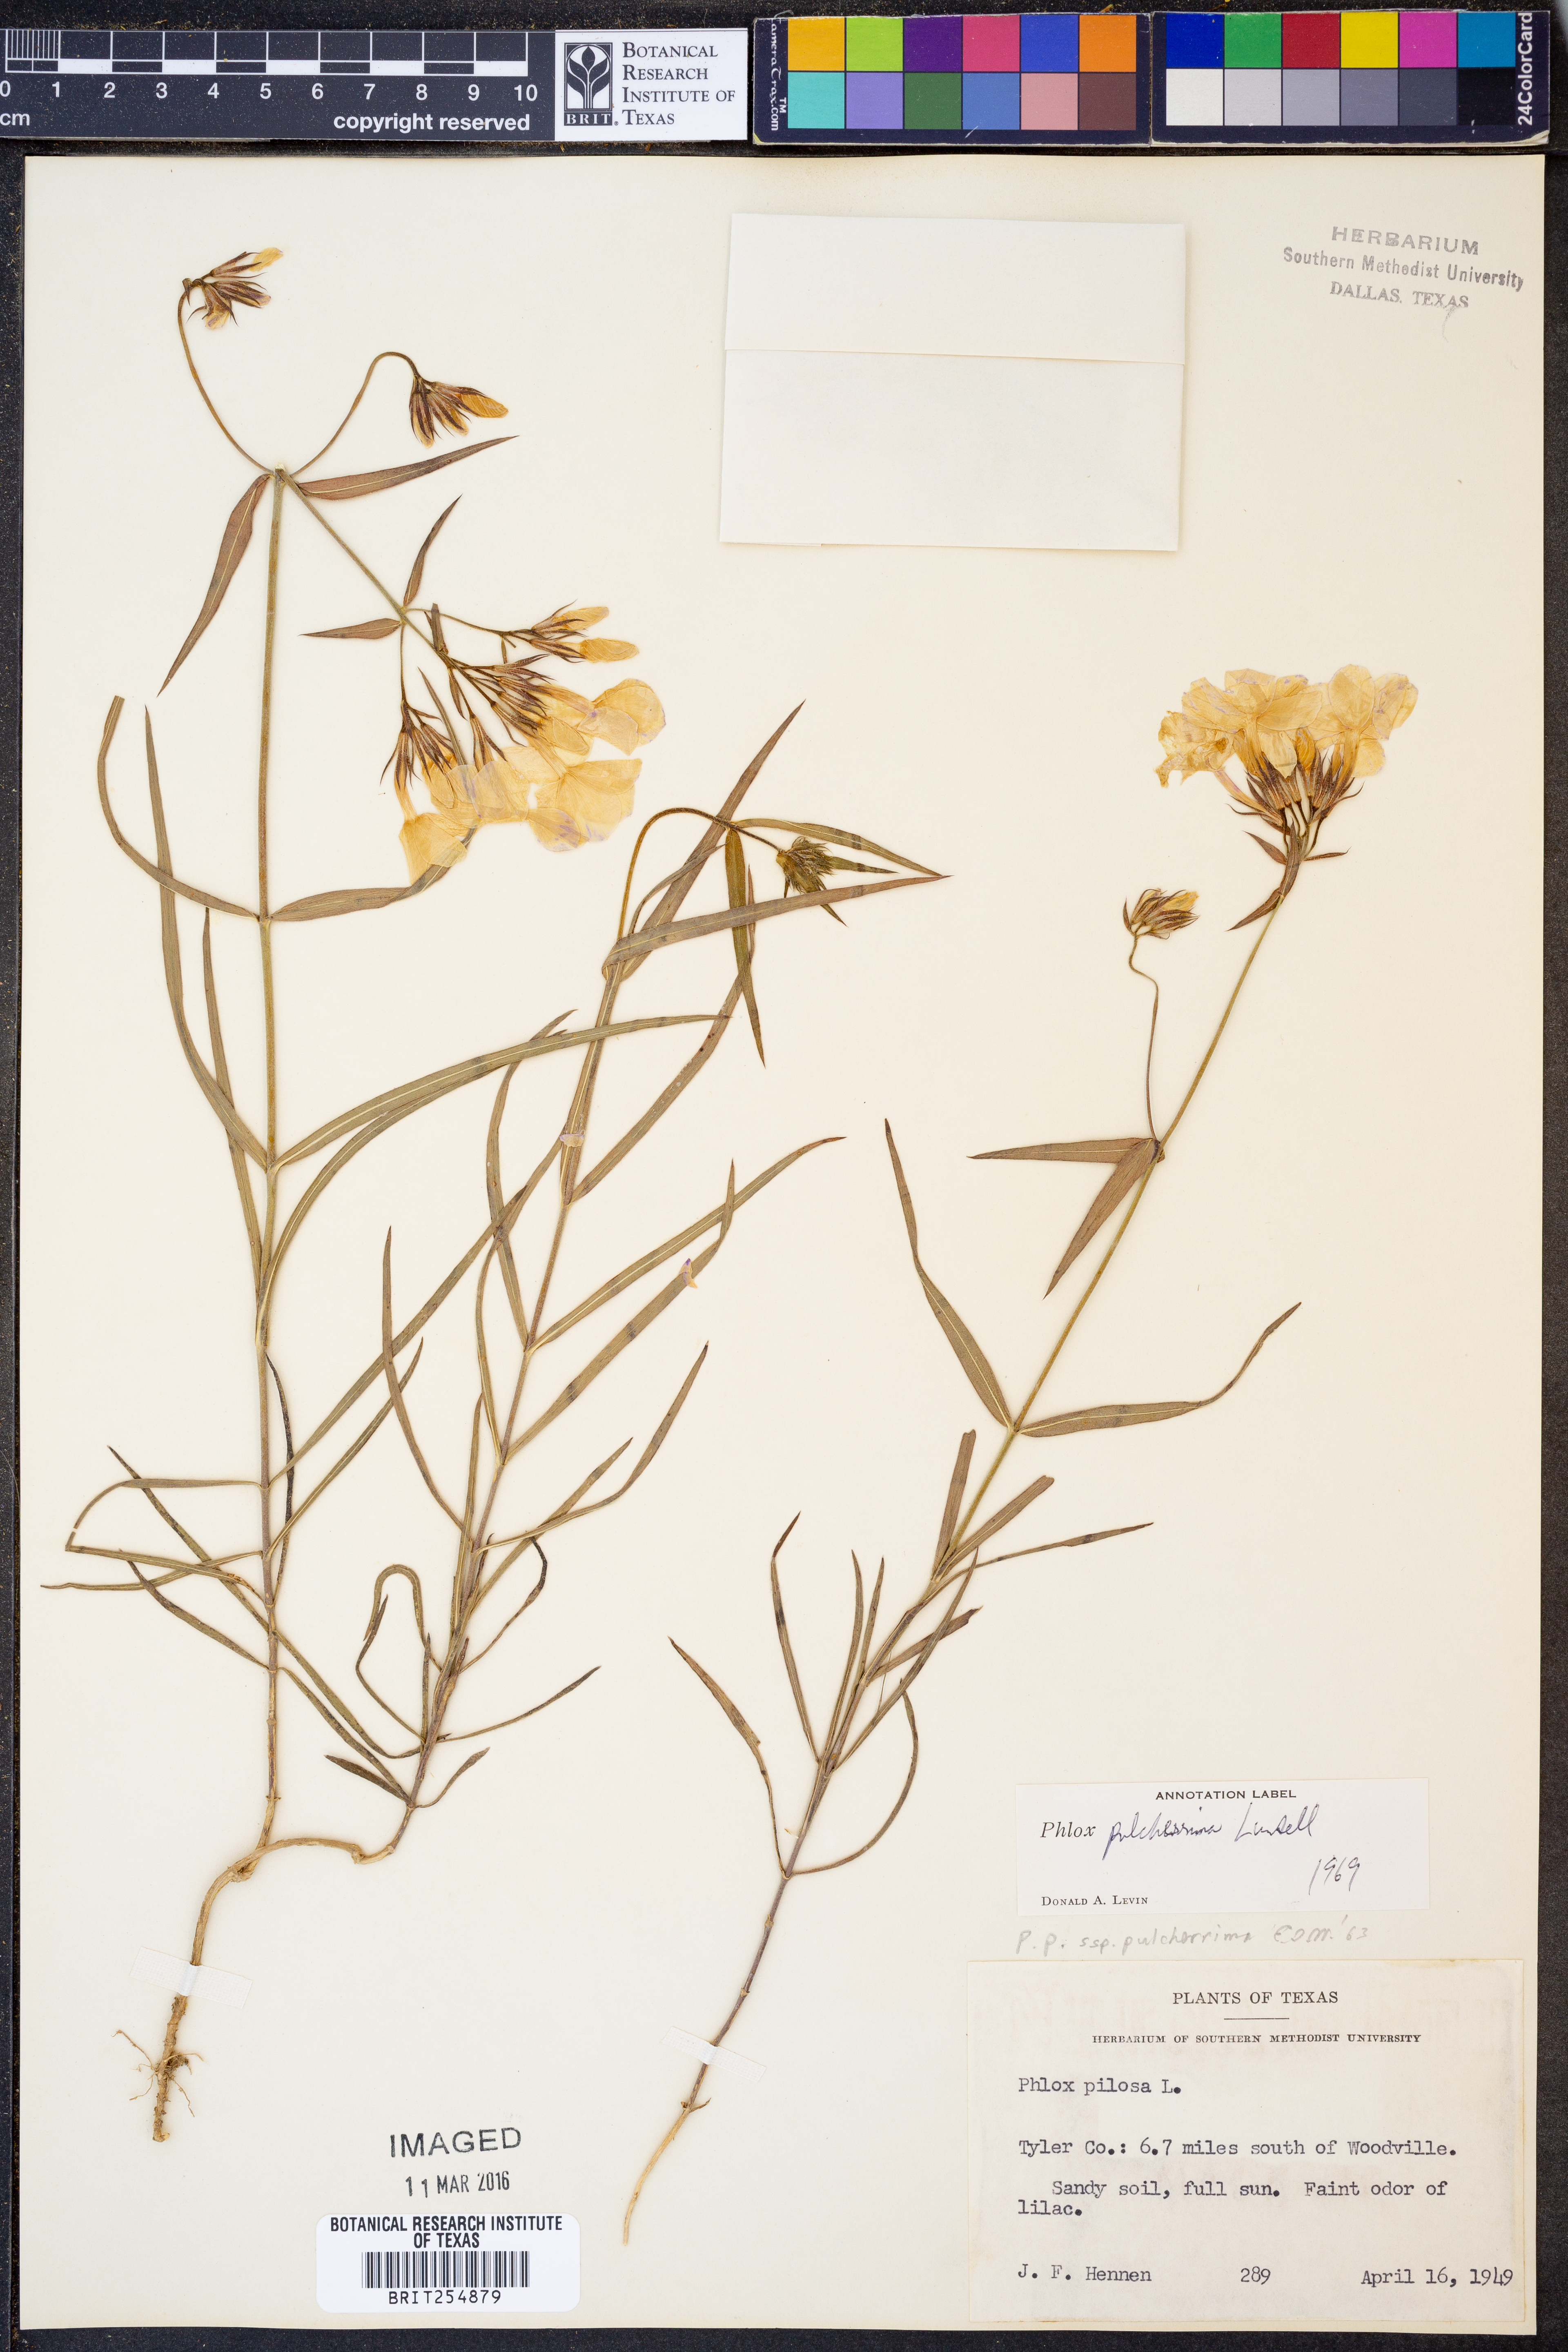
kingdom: Plantae
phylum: Tracheophyta
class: Magnoliopsida
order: Ericales
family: Polemoniaceae
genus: Phlox
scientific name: Phlox pilosa
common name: Prairie phlox
